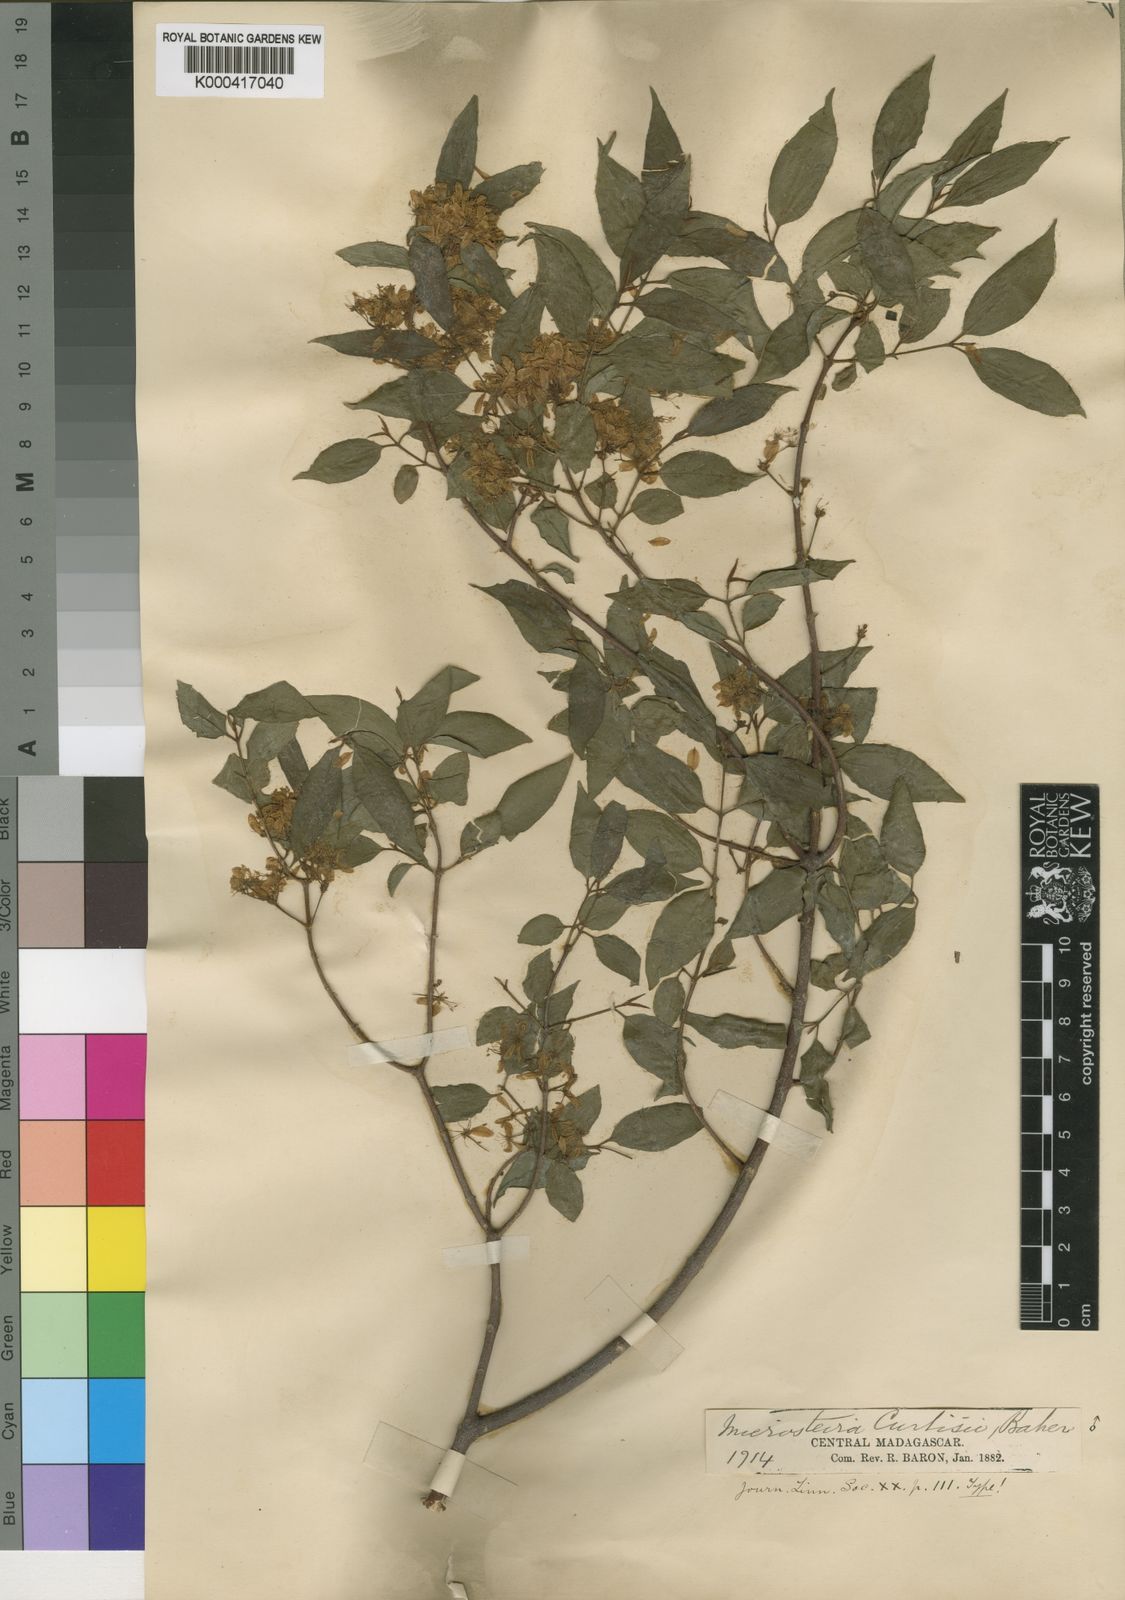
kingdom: Plantae
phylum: Tracheophyta
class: Magnoliopsida
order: Malpighiales
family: Malpighiaceae
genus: Microsteira
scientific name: Microsteira curtisii
